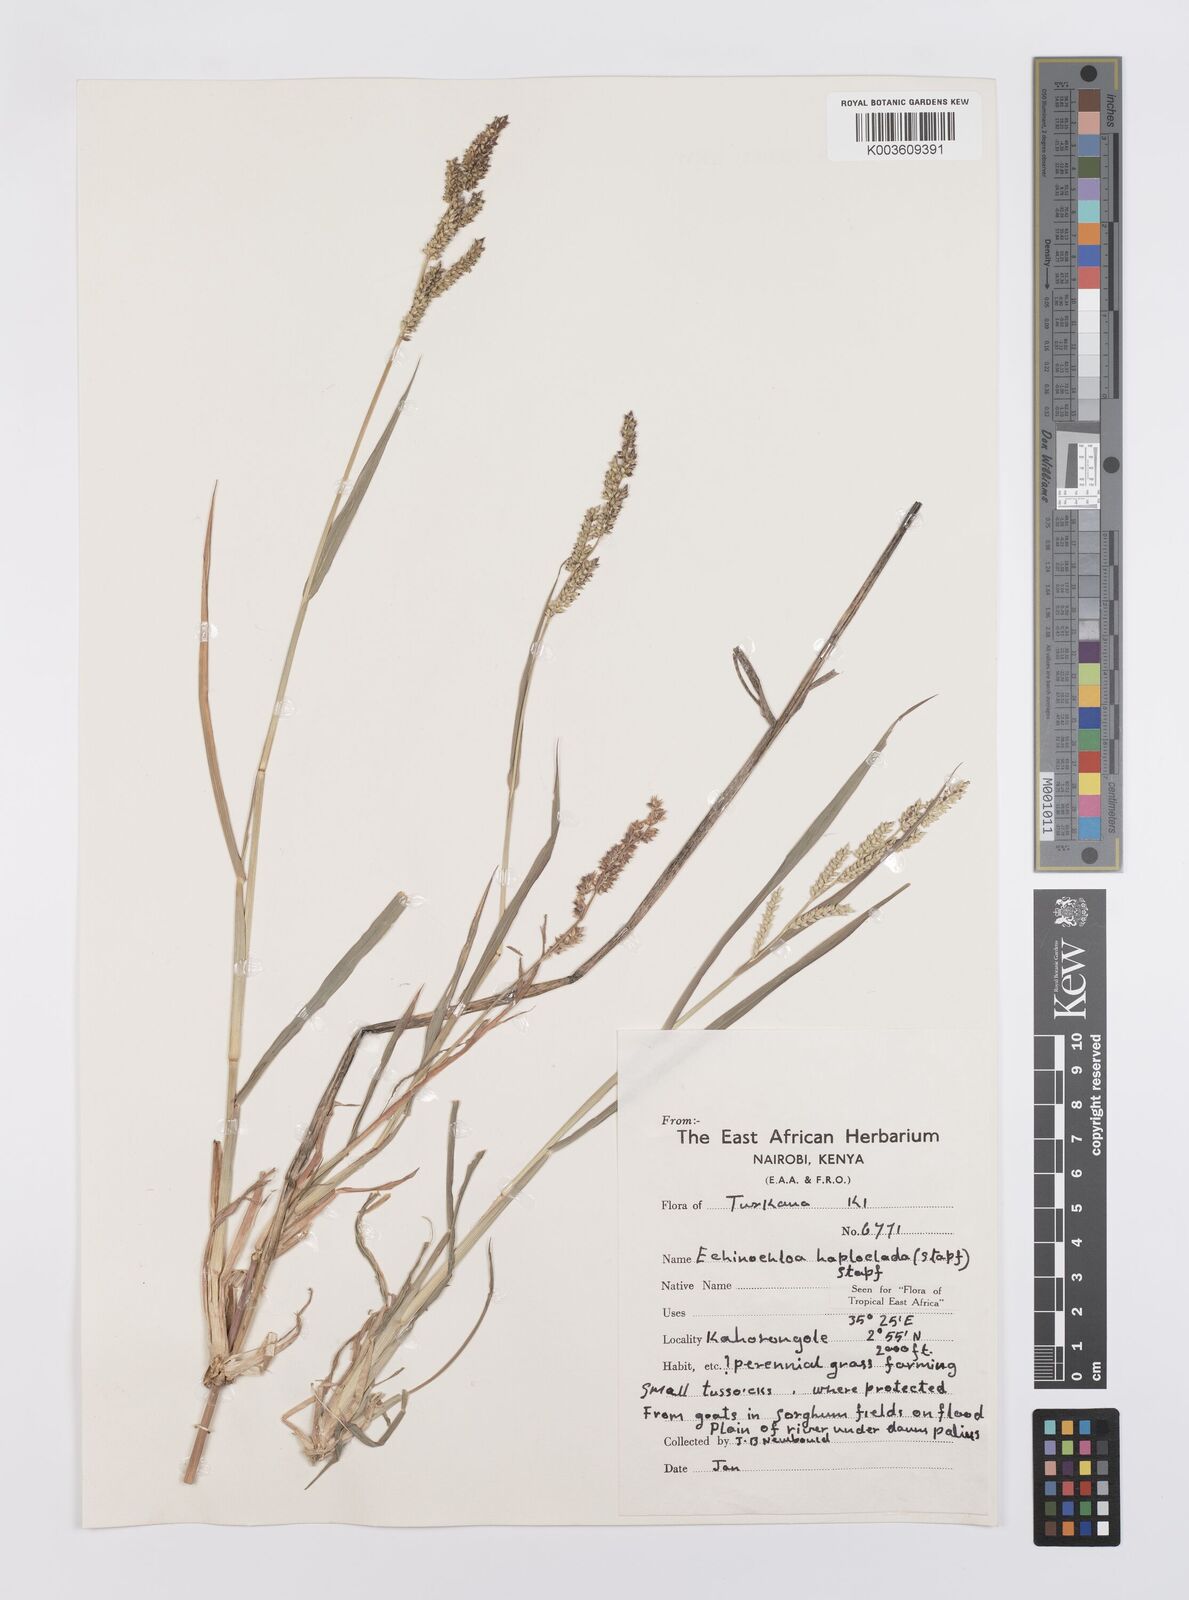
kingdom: Plantae
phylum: Tracheophyta
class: Liliopsida
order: Poales
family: Poaceae
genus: Echinochloa
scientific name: Echinochloa haploclada
